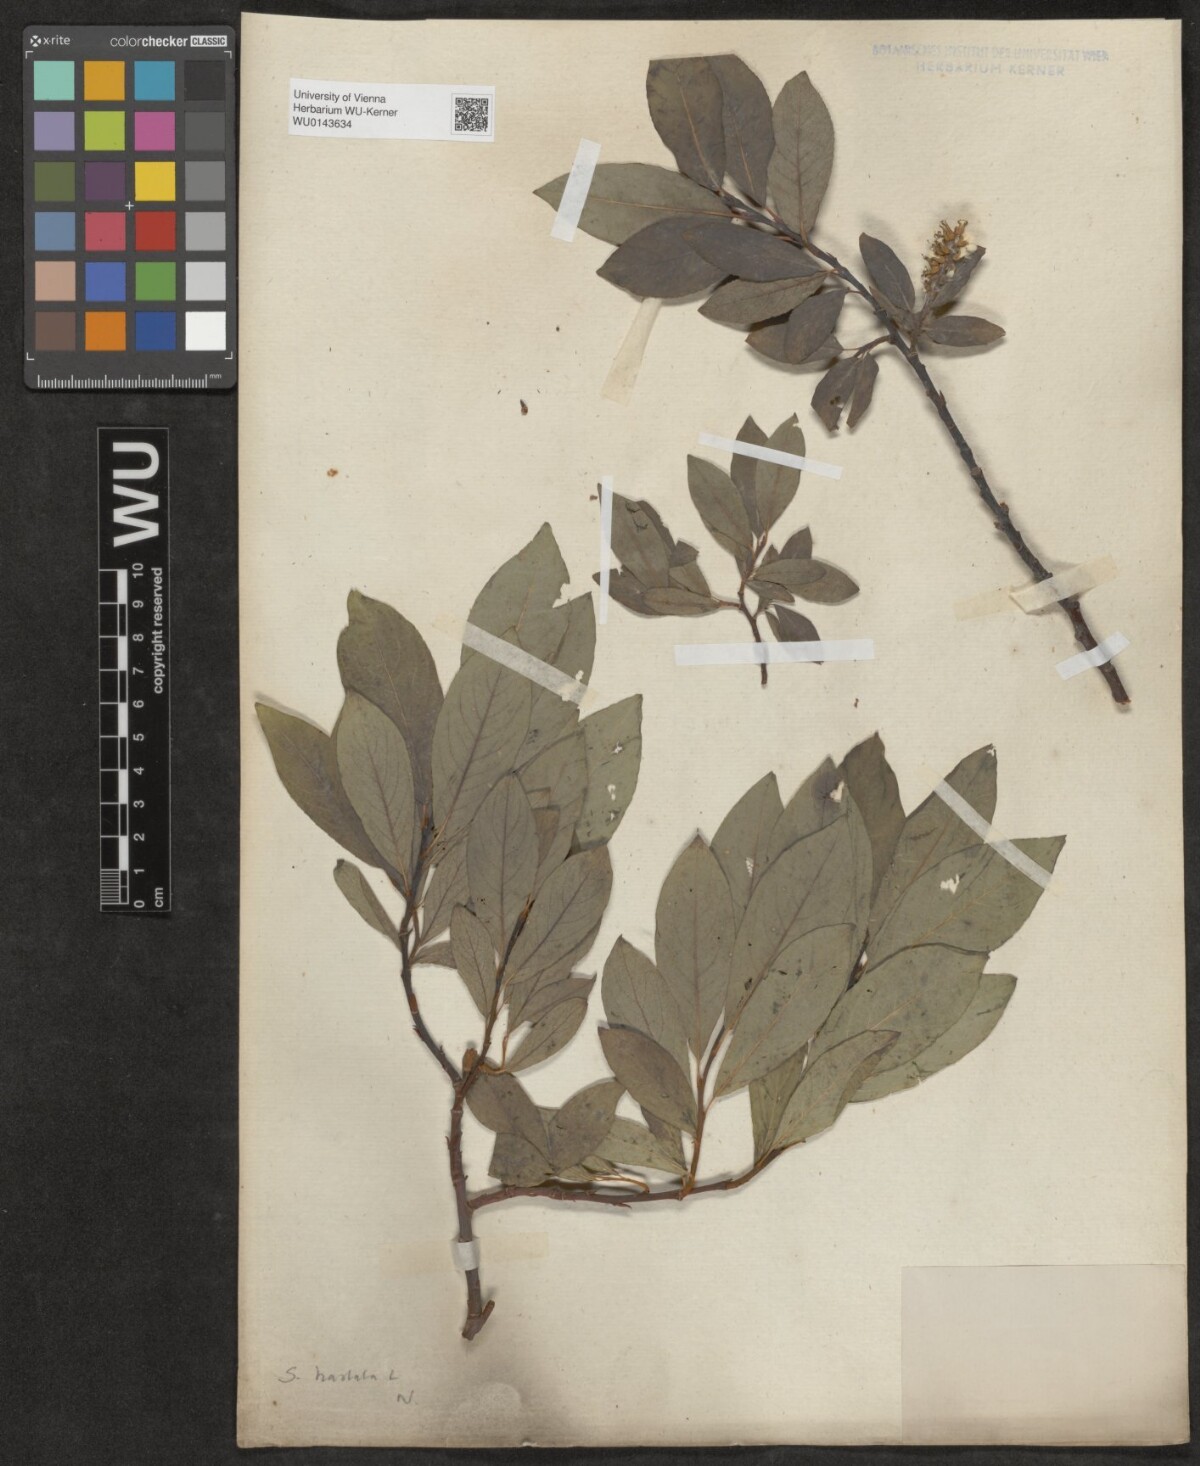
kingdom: Plantae
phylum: Tracheophyta
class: Magnoliopsida
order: Malpighiales
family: Salicaceae
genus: Salix
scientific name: Salix
